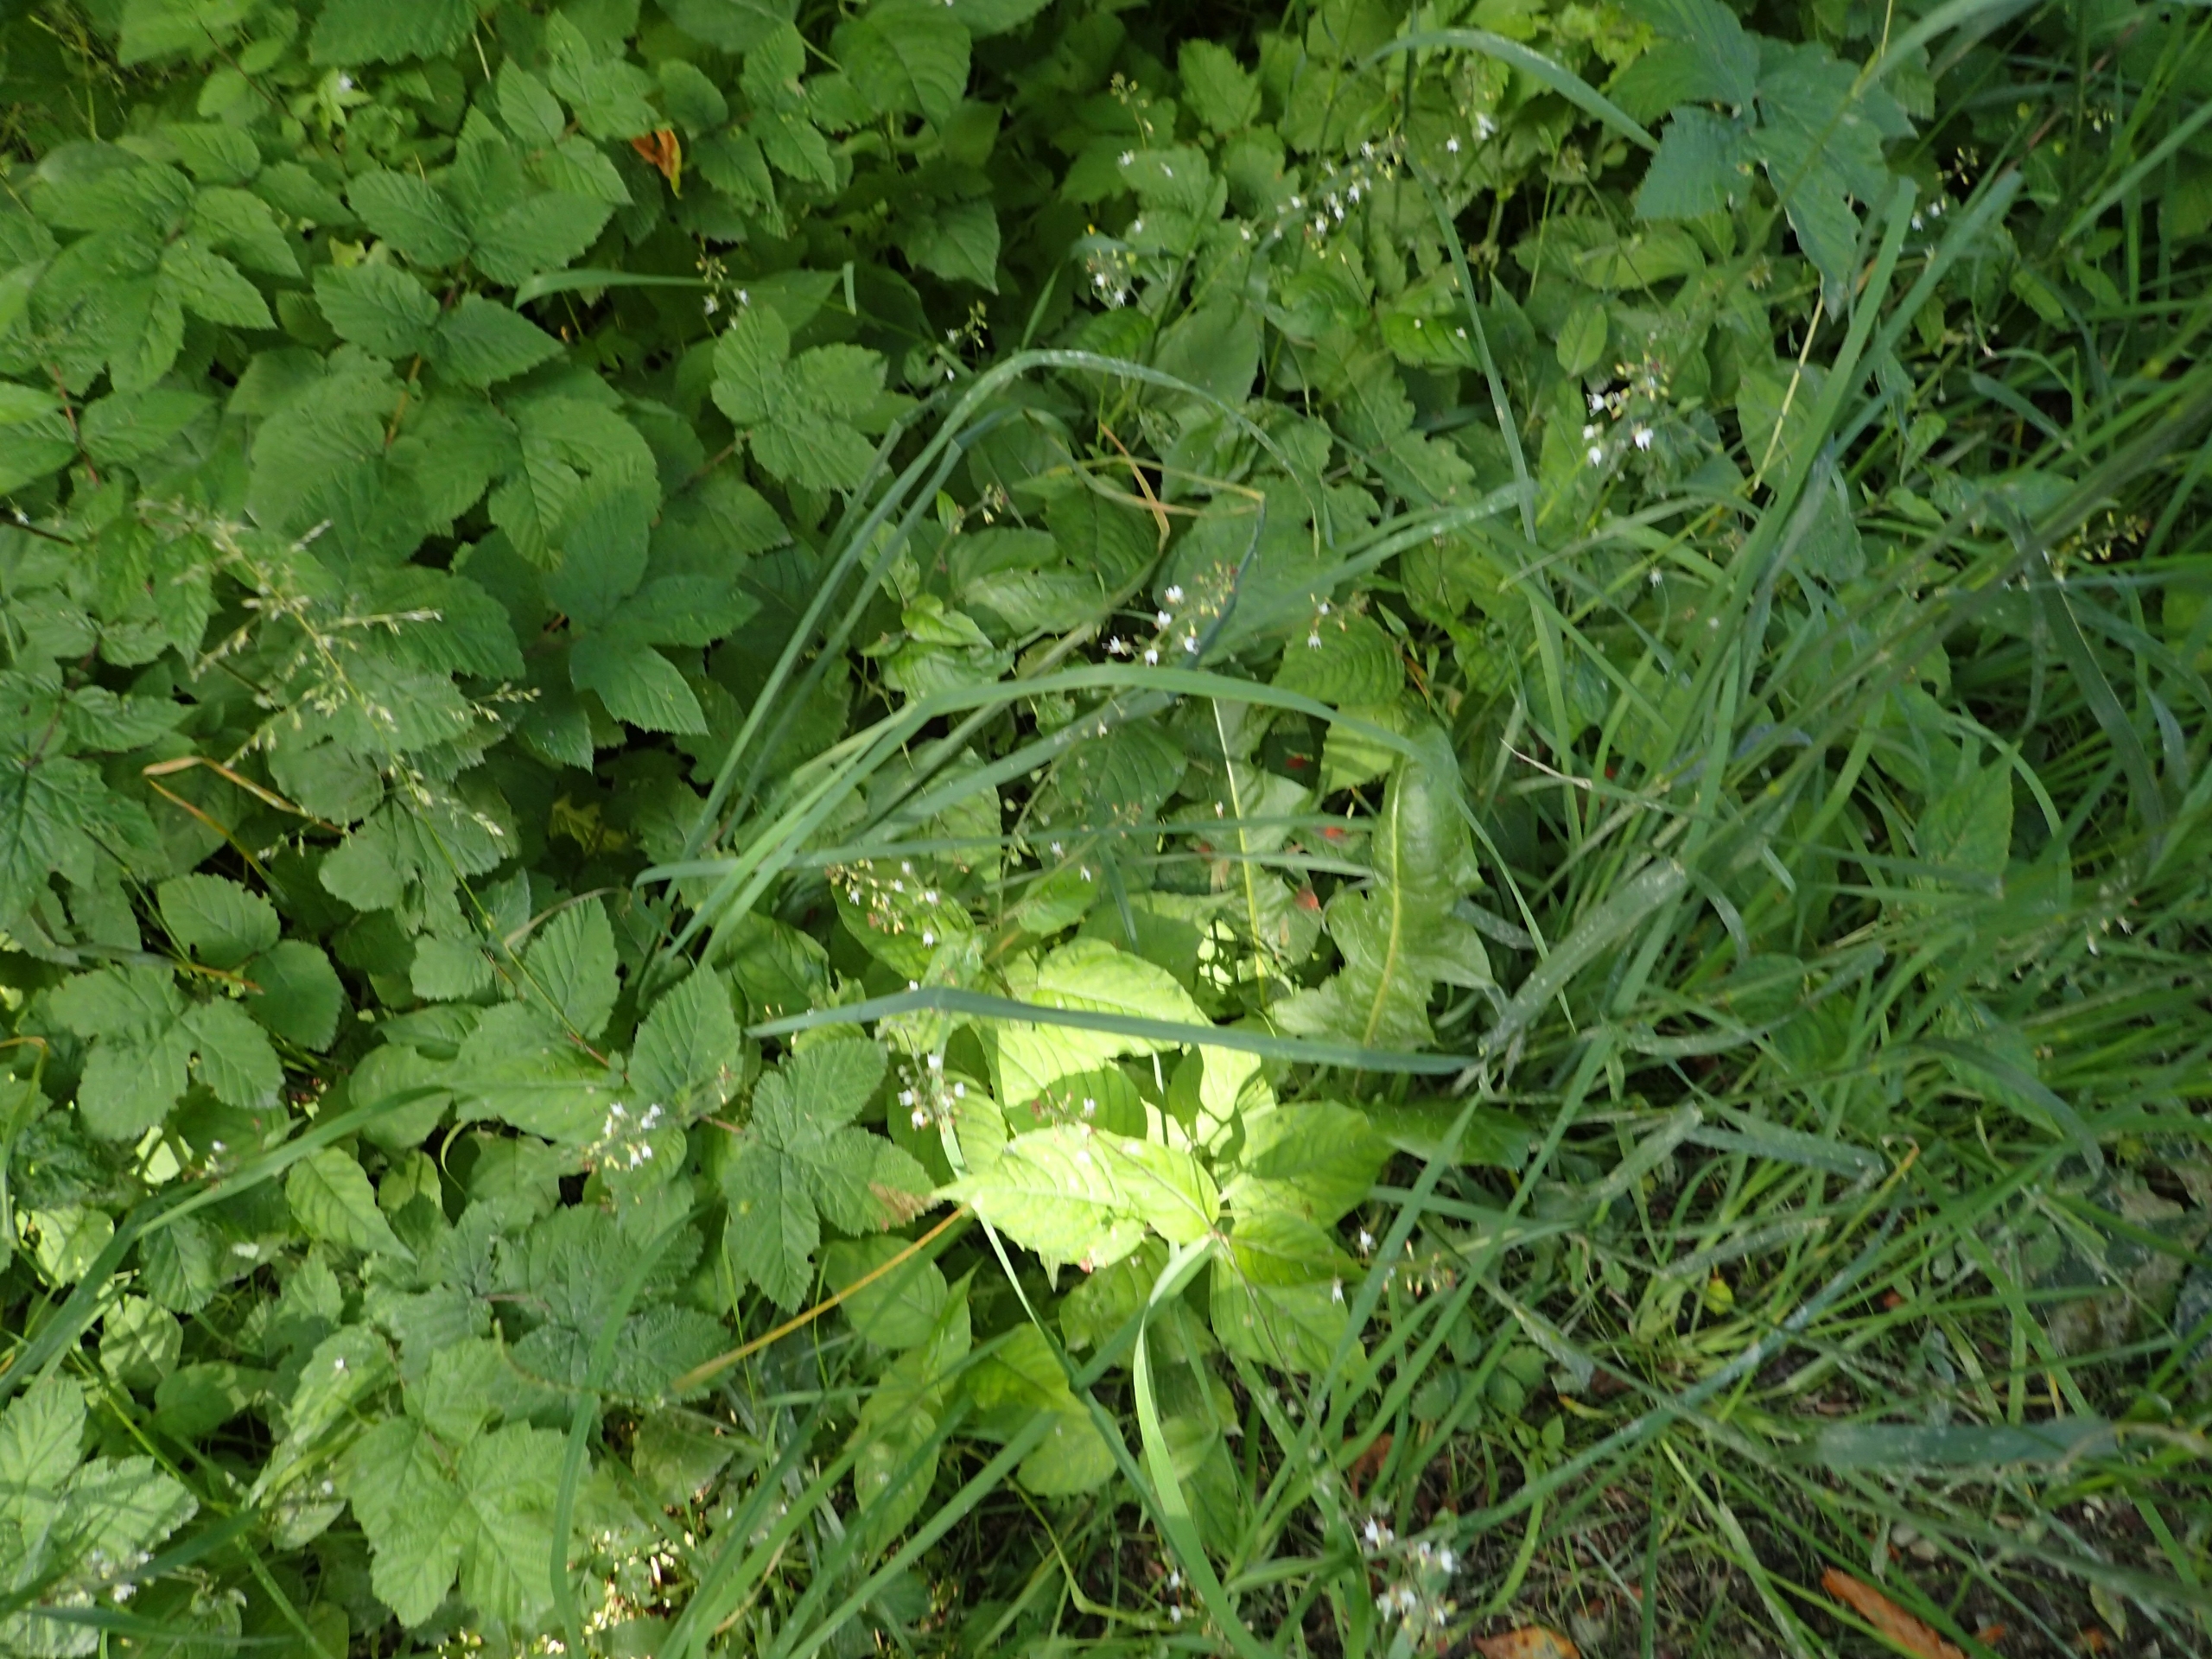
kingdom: Plantae
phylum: Tracheophyta
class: Magnoliopsida
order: Myrtales
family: Onagraceae
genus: Circaea
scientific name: Circaea lutetiana
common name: Dunet steffensurt
